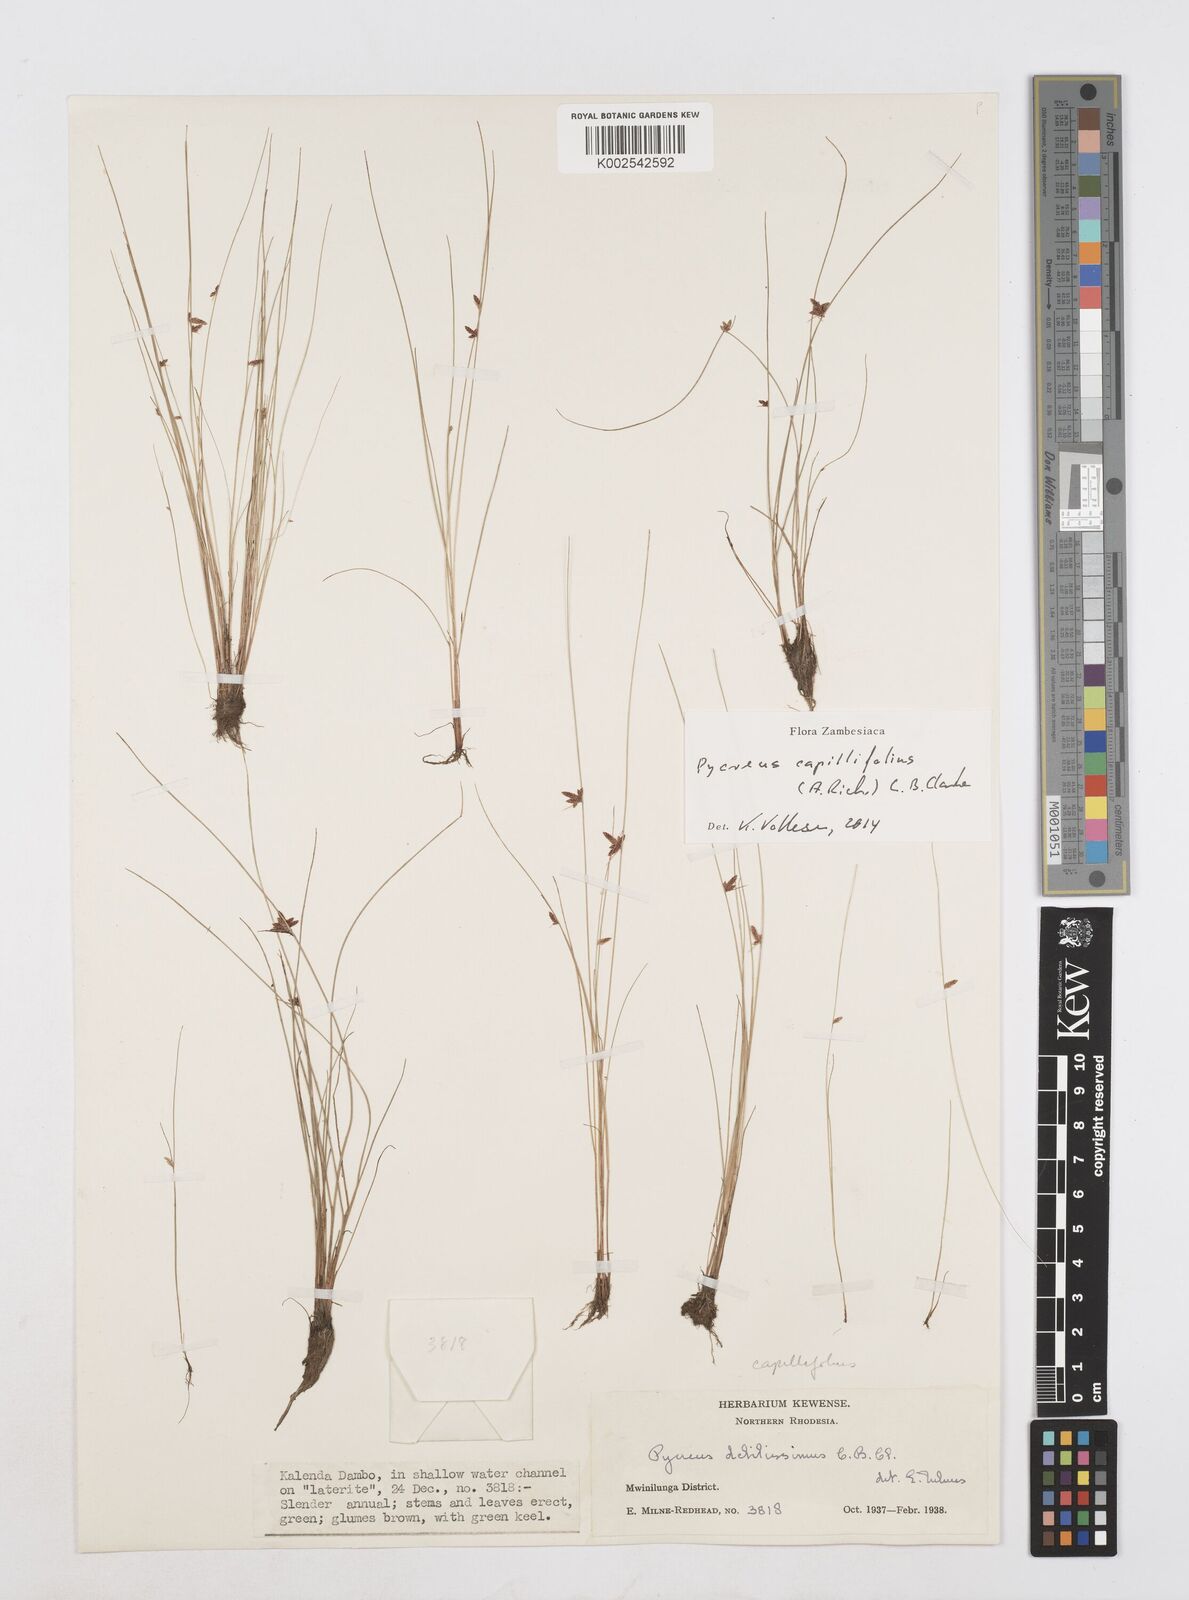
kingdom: Plantae
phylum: Tracheophyta
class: Liliopsida
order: Poales
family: Cyperaceae
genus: Cyperus
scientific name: Cyperus capillifolius
